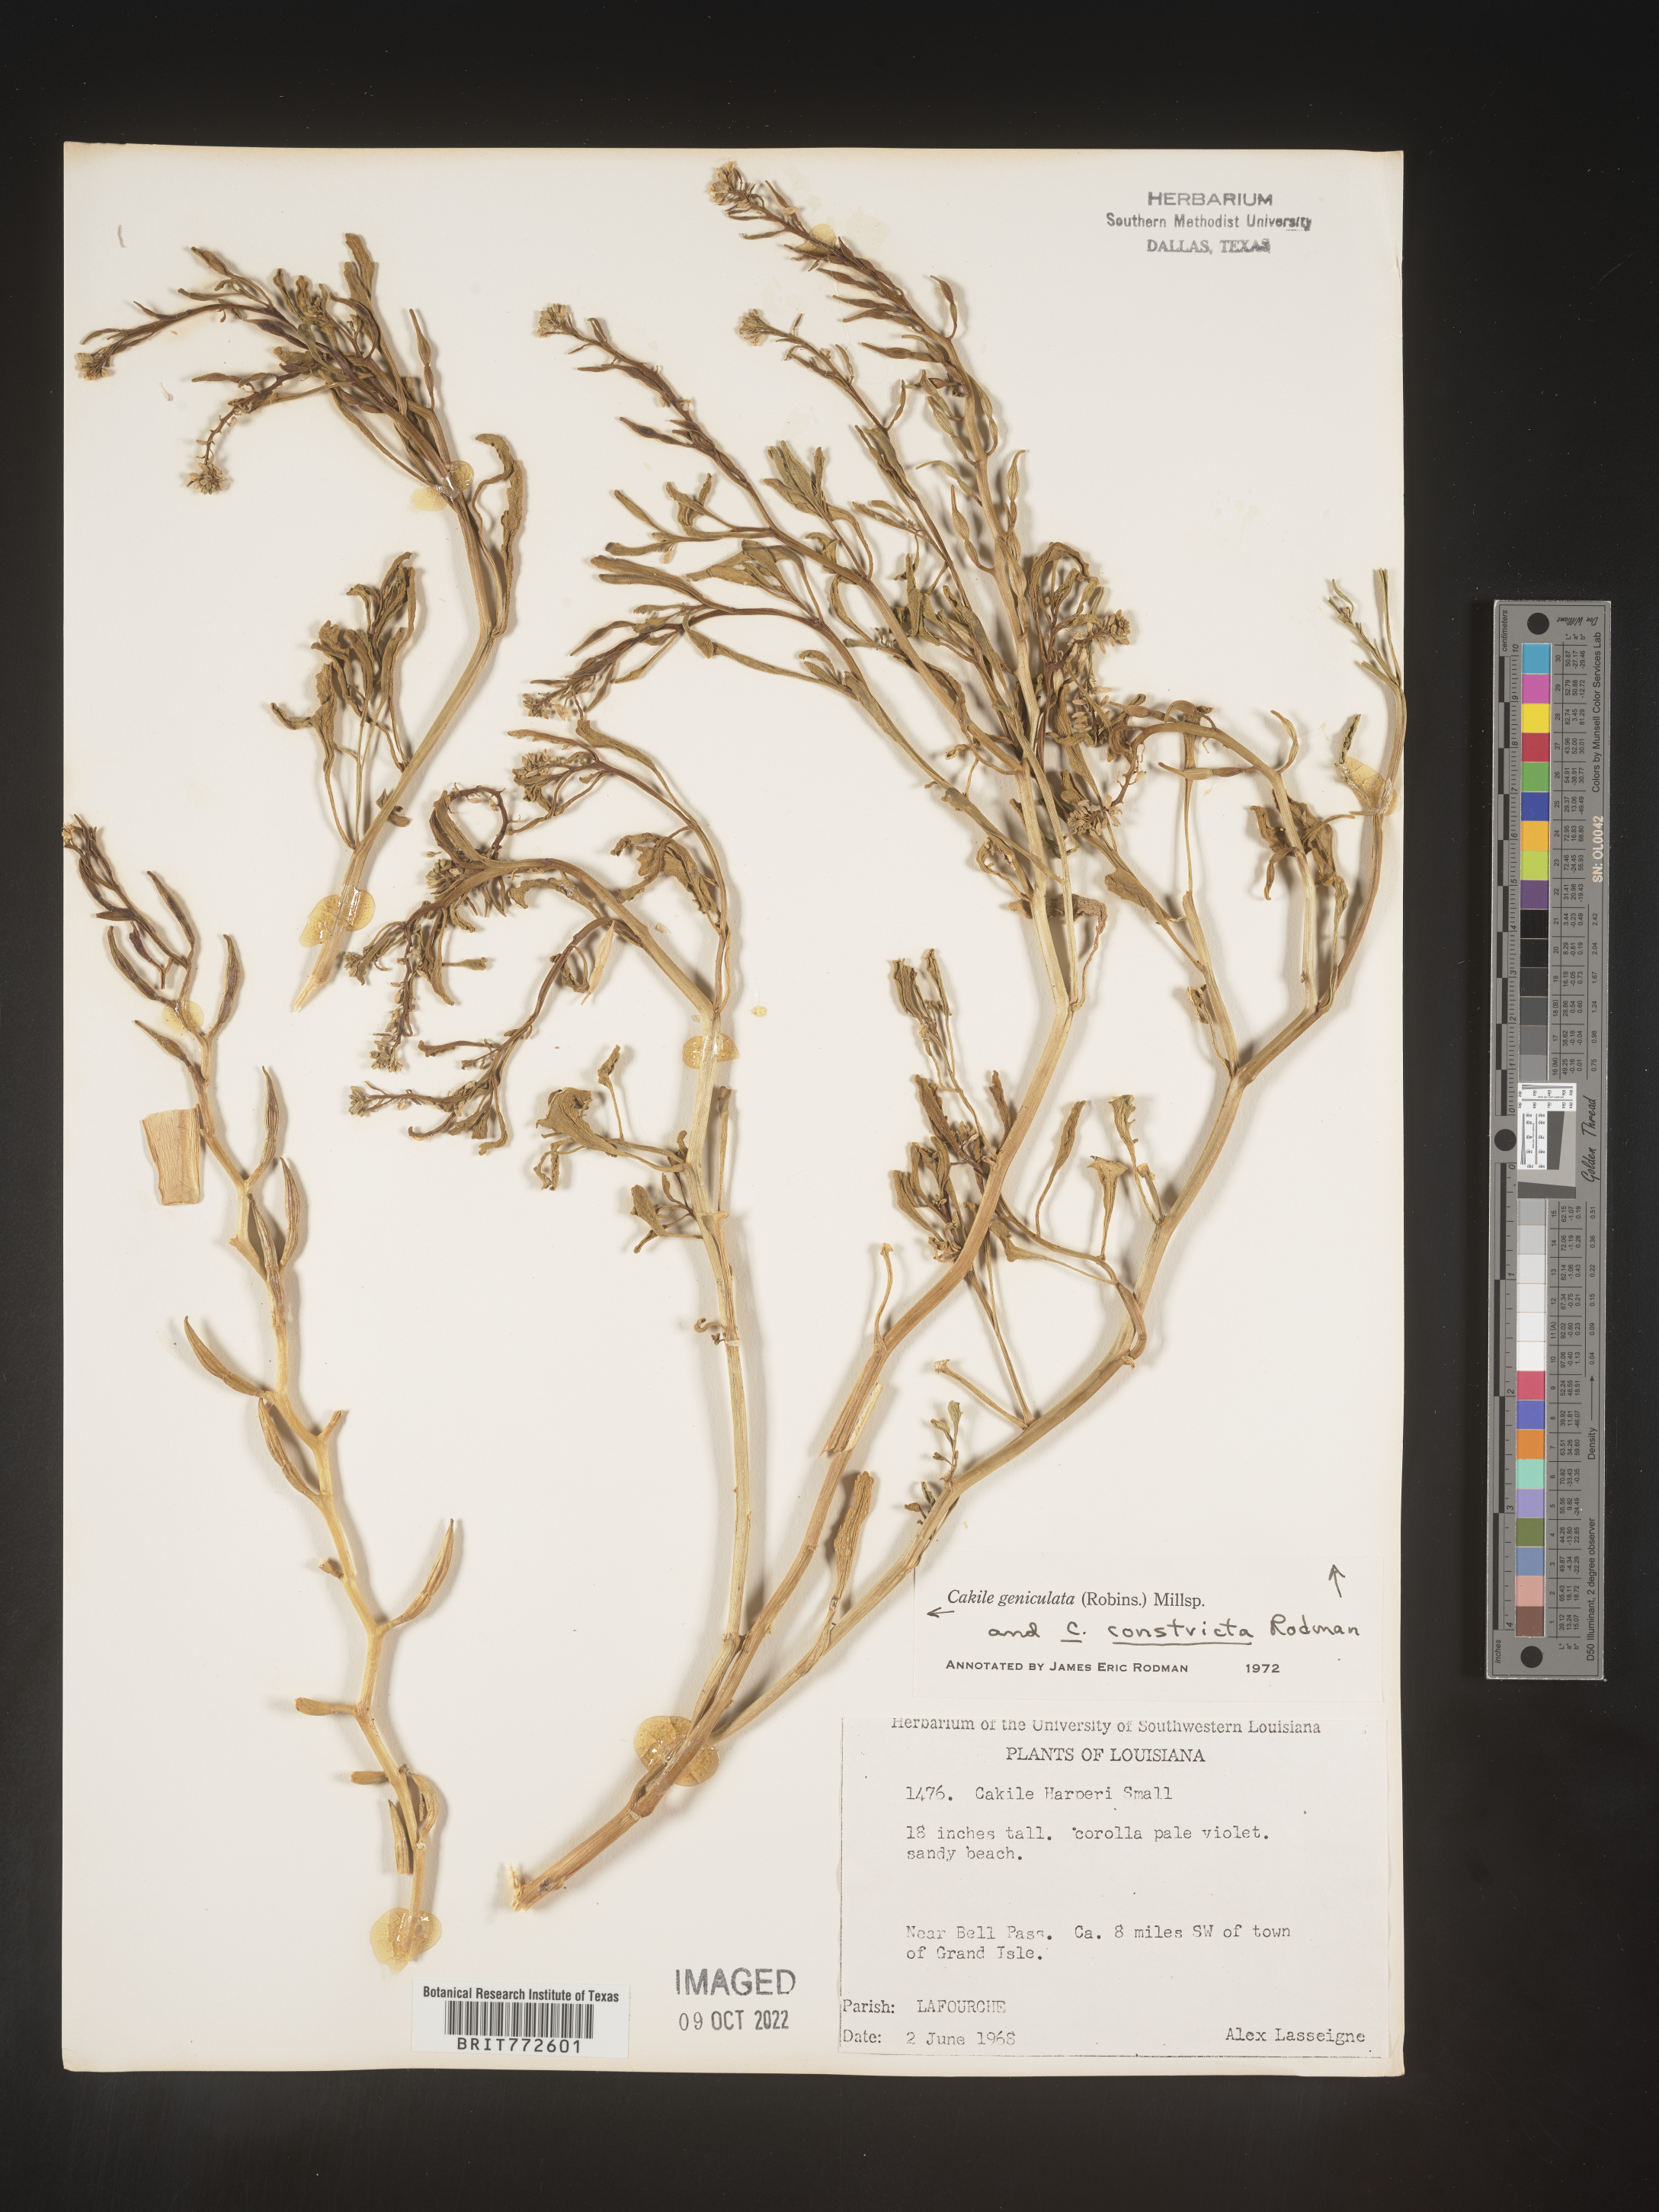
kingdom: Plantae
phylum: Tracheophyta
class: Magnoliopsida
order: Brassicales
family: Brassicaceae
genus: Cakile
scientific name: Cakile geniculata
